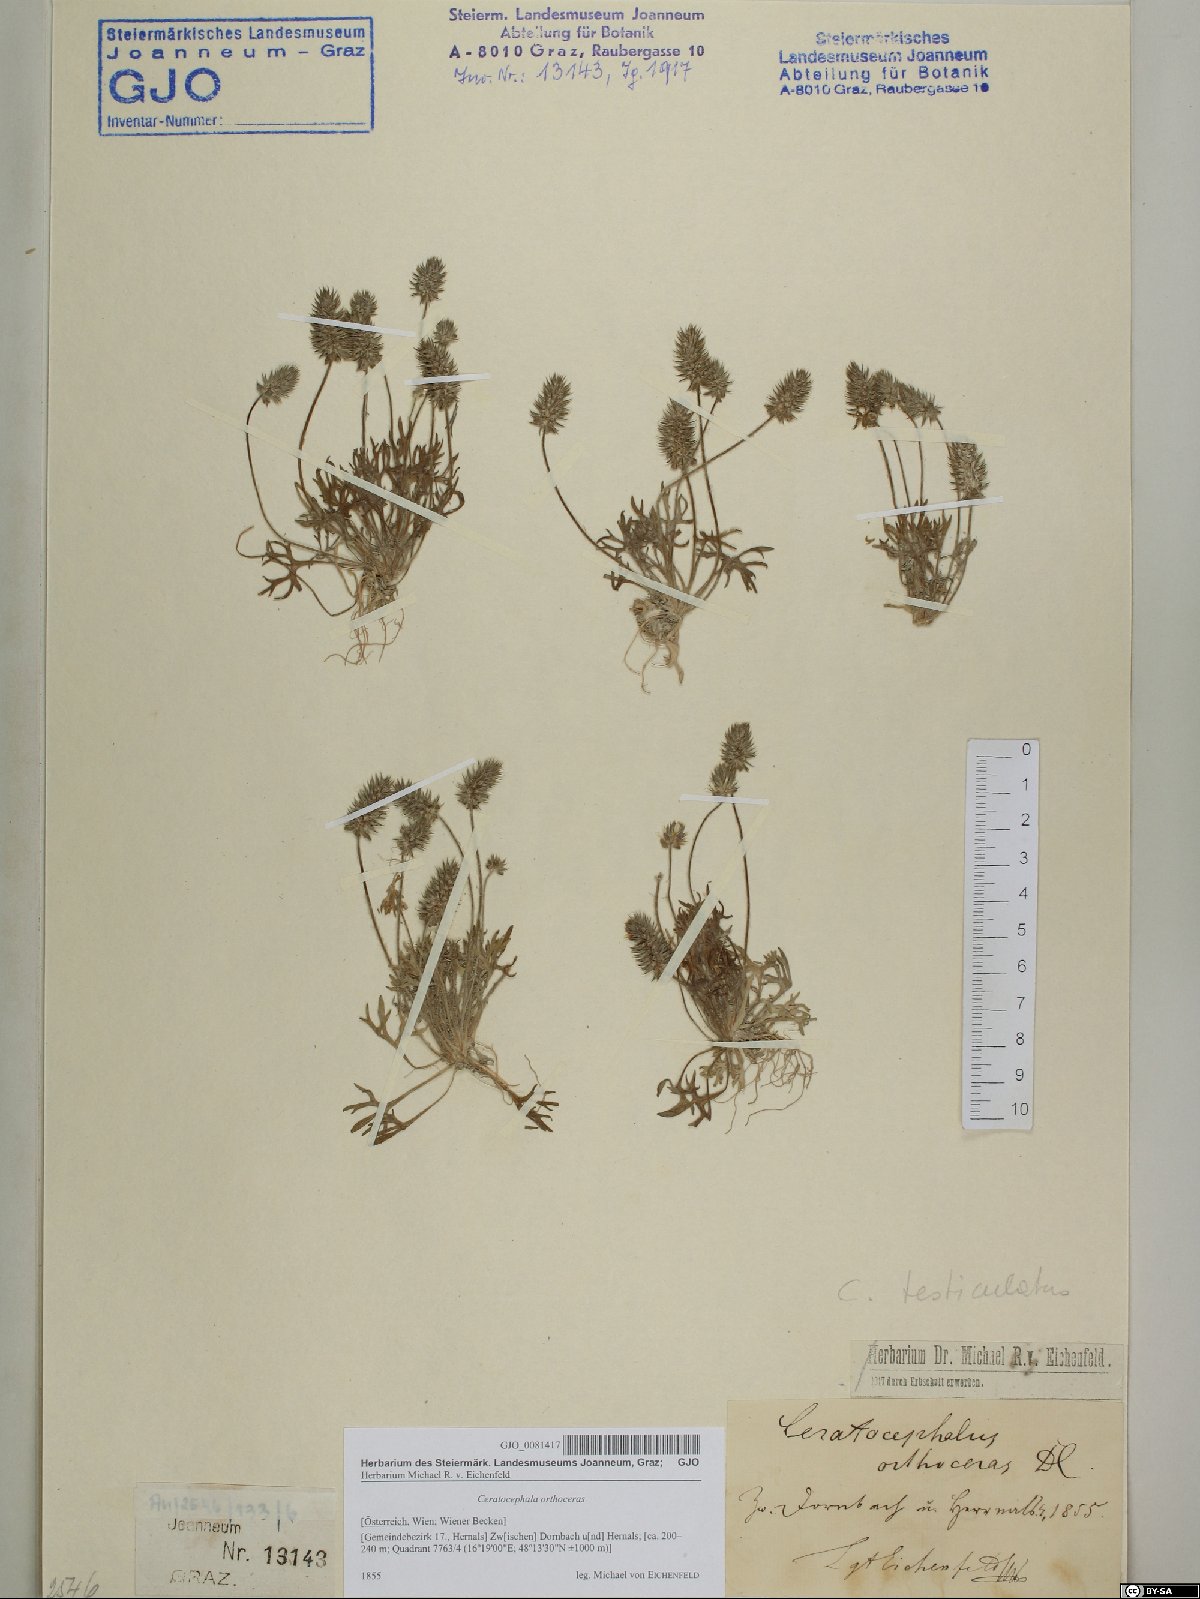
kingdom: Plantae
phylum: Tracheophyta
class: Magnoliopsida
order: Ranunculales
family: Ranunculaceae
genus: Ceratocephala
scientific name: Ceratocephala orthoceras
